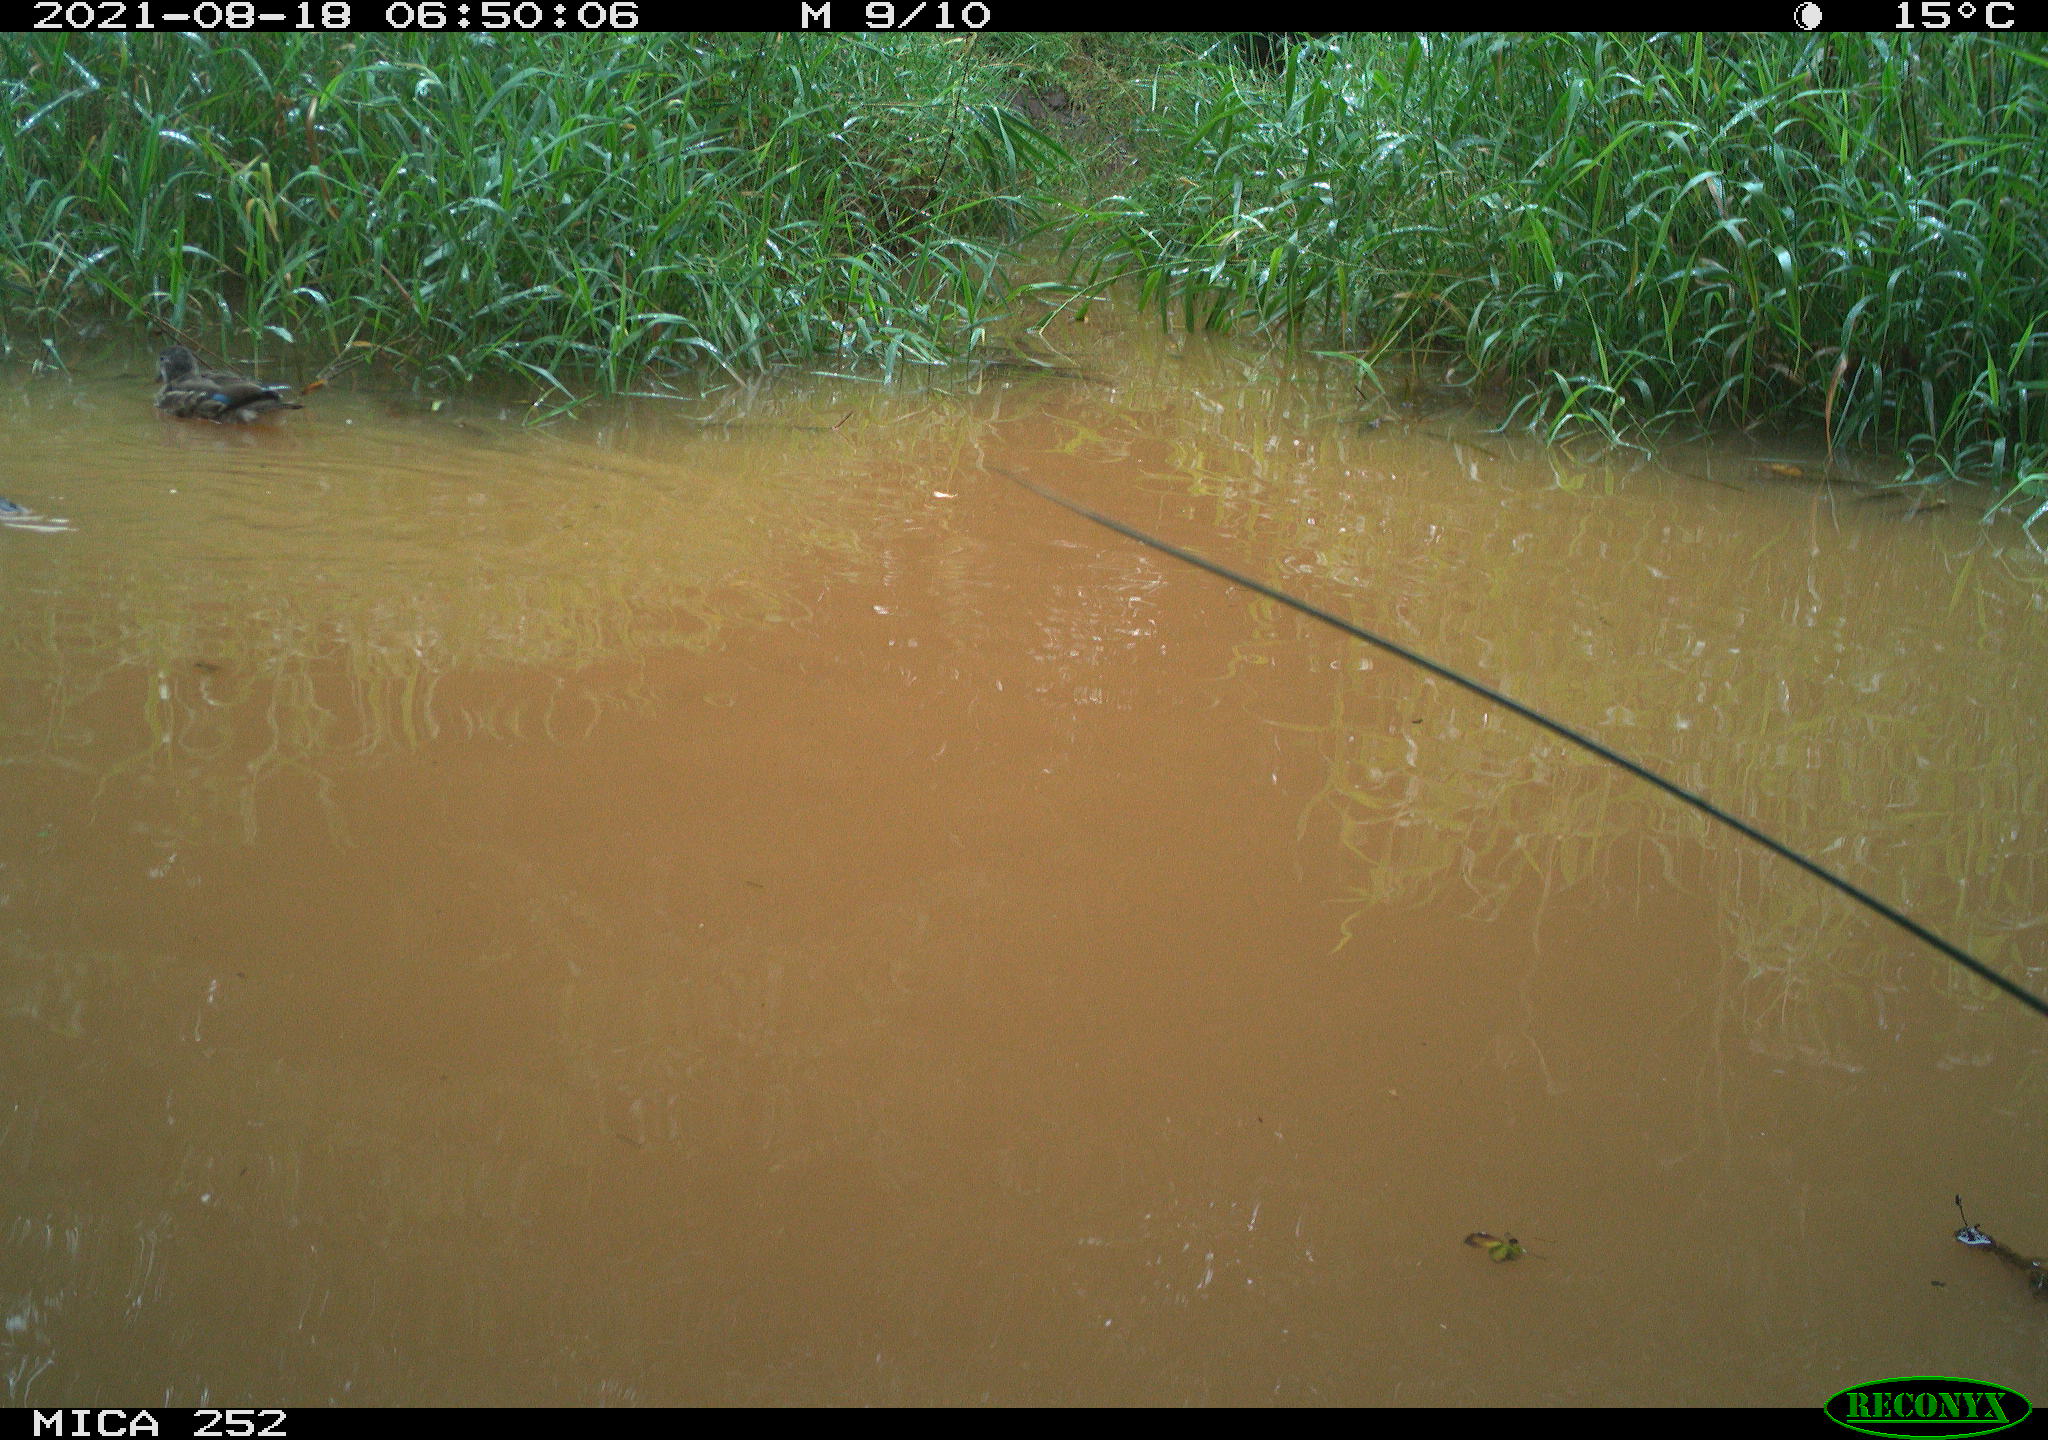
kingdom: Animalia
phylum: Chordata
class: Aves
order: Anseriformes
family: Anatidae
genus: Anas
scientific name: Anas
